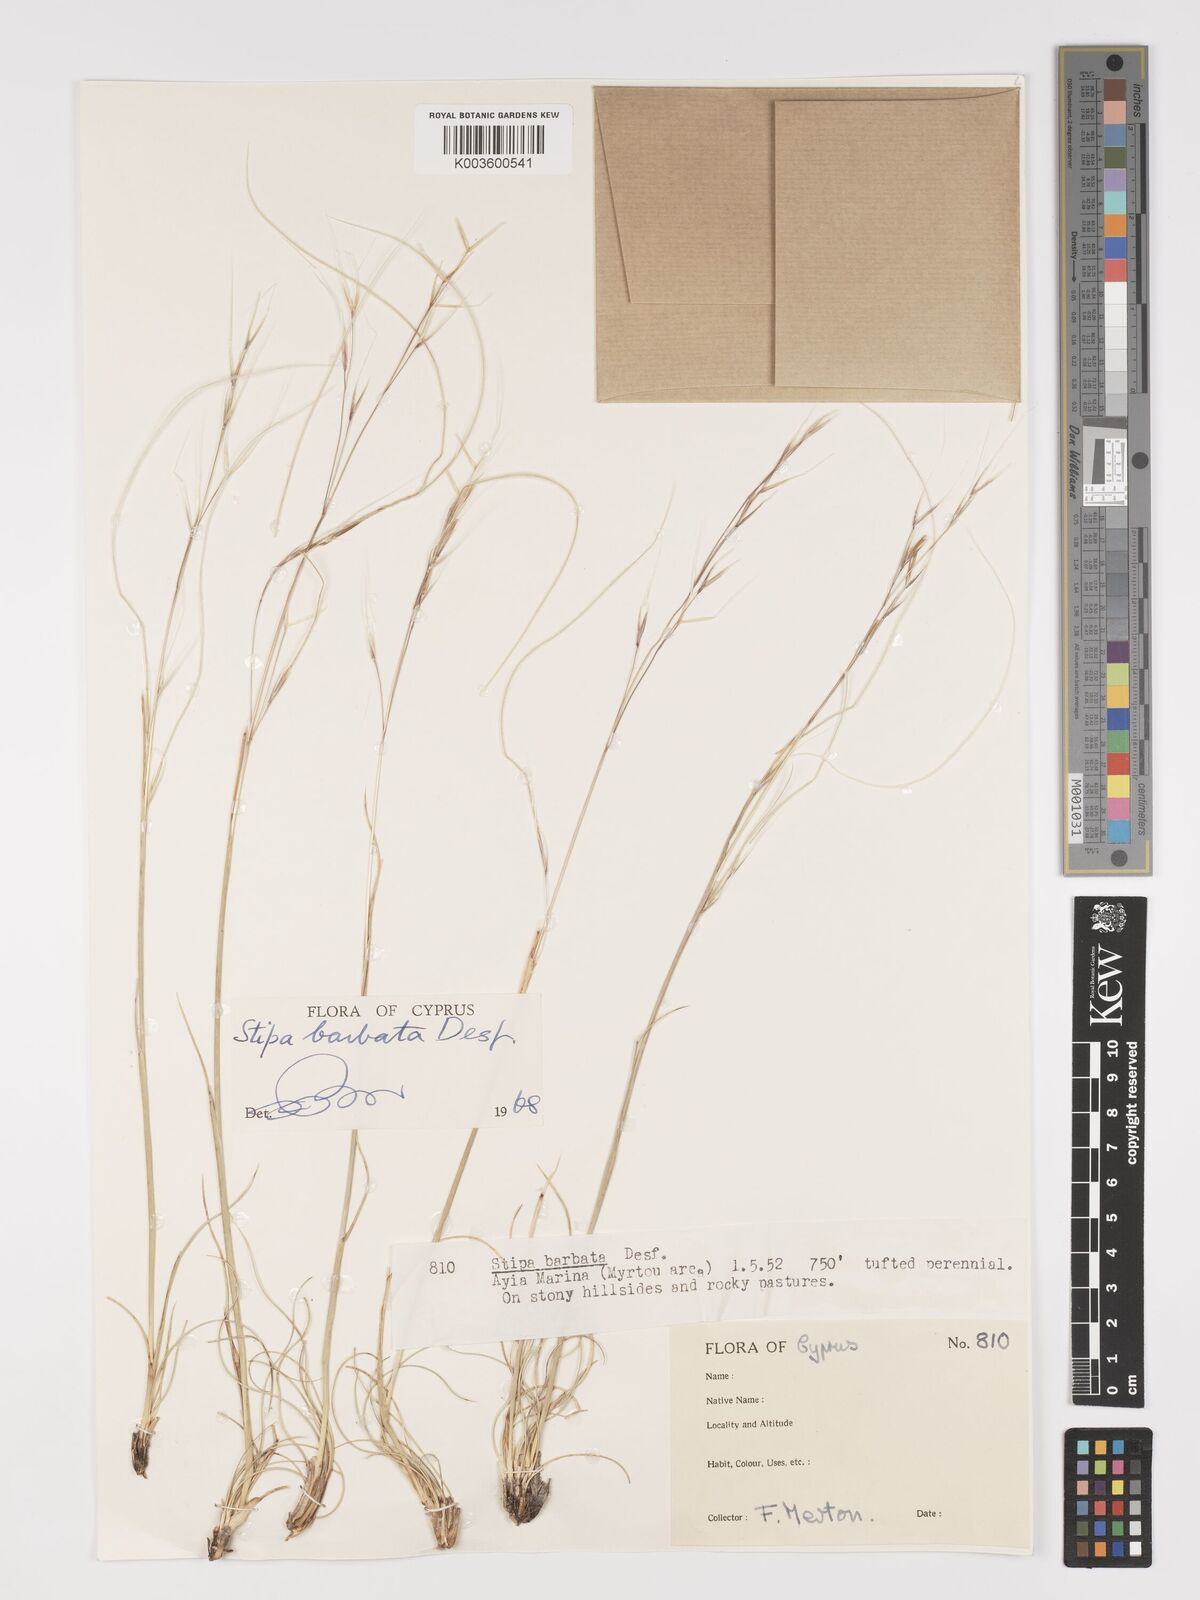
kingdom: Plantae
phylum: Tracheophyta
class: Liliopsida
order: Poales
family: Poaceae
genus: Stipa
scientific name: Stipa barbata
